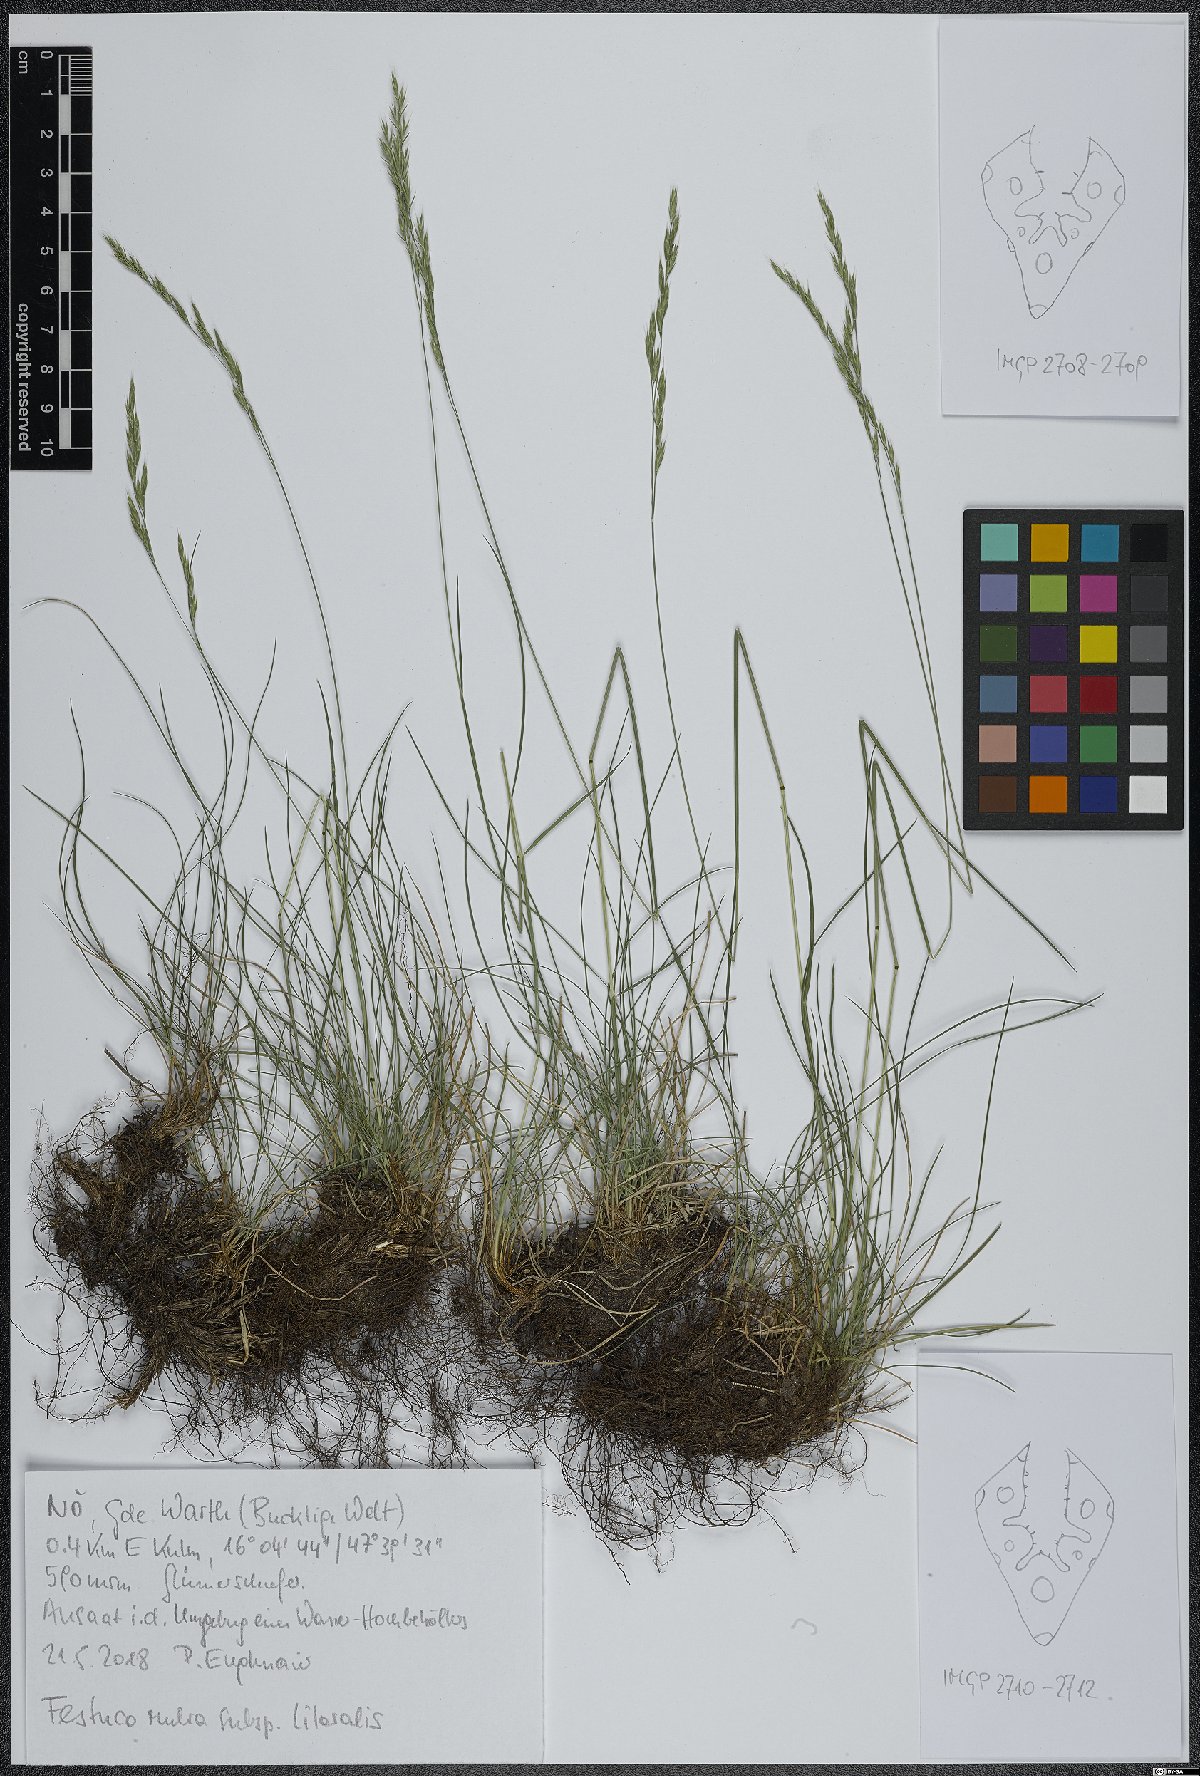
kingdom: Plantae
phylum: Tracheophyta
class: Liliopsida
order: Poales
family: Poaceae
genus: Festuca
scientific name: Festuca rubra
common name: Red fescue
